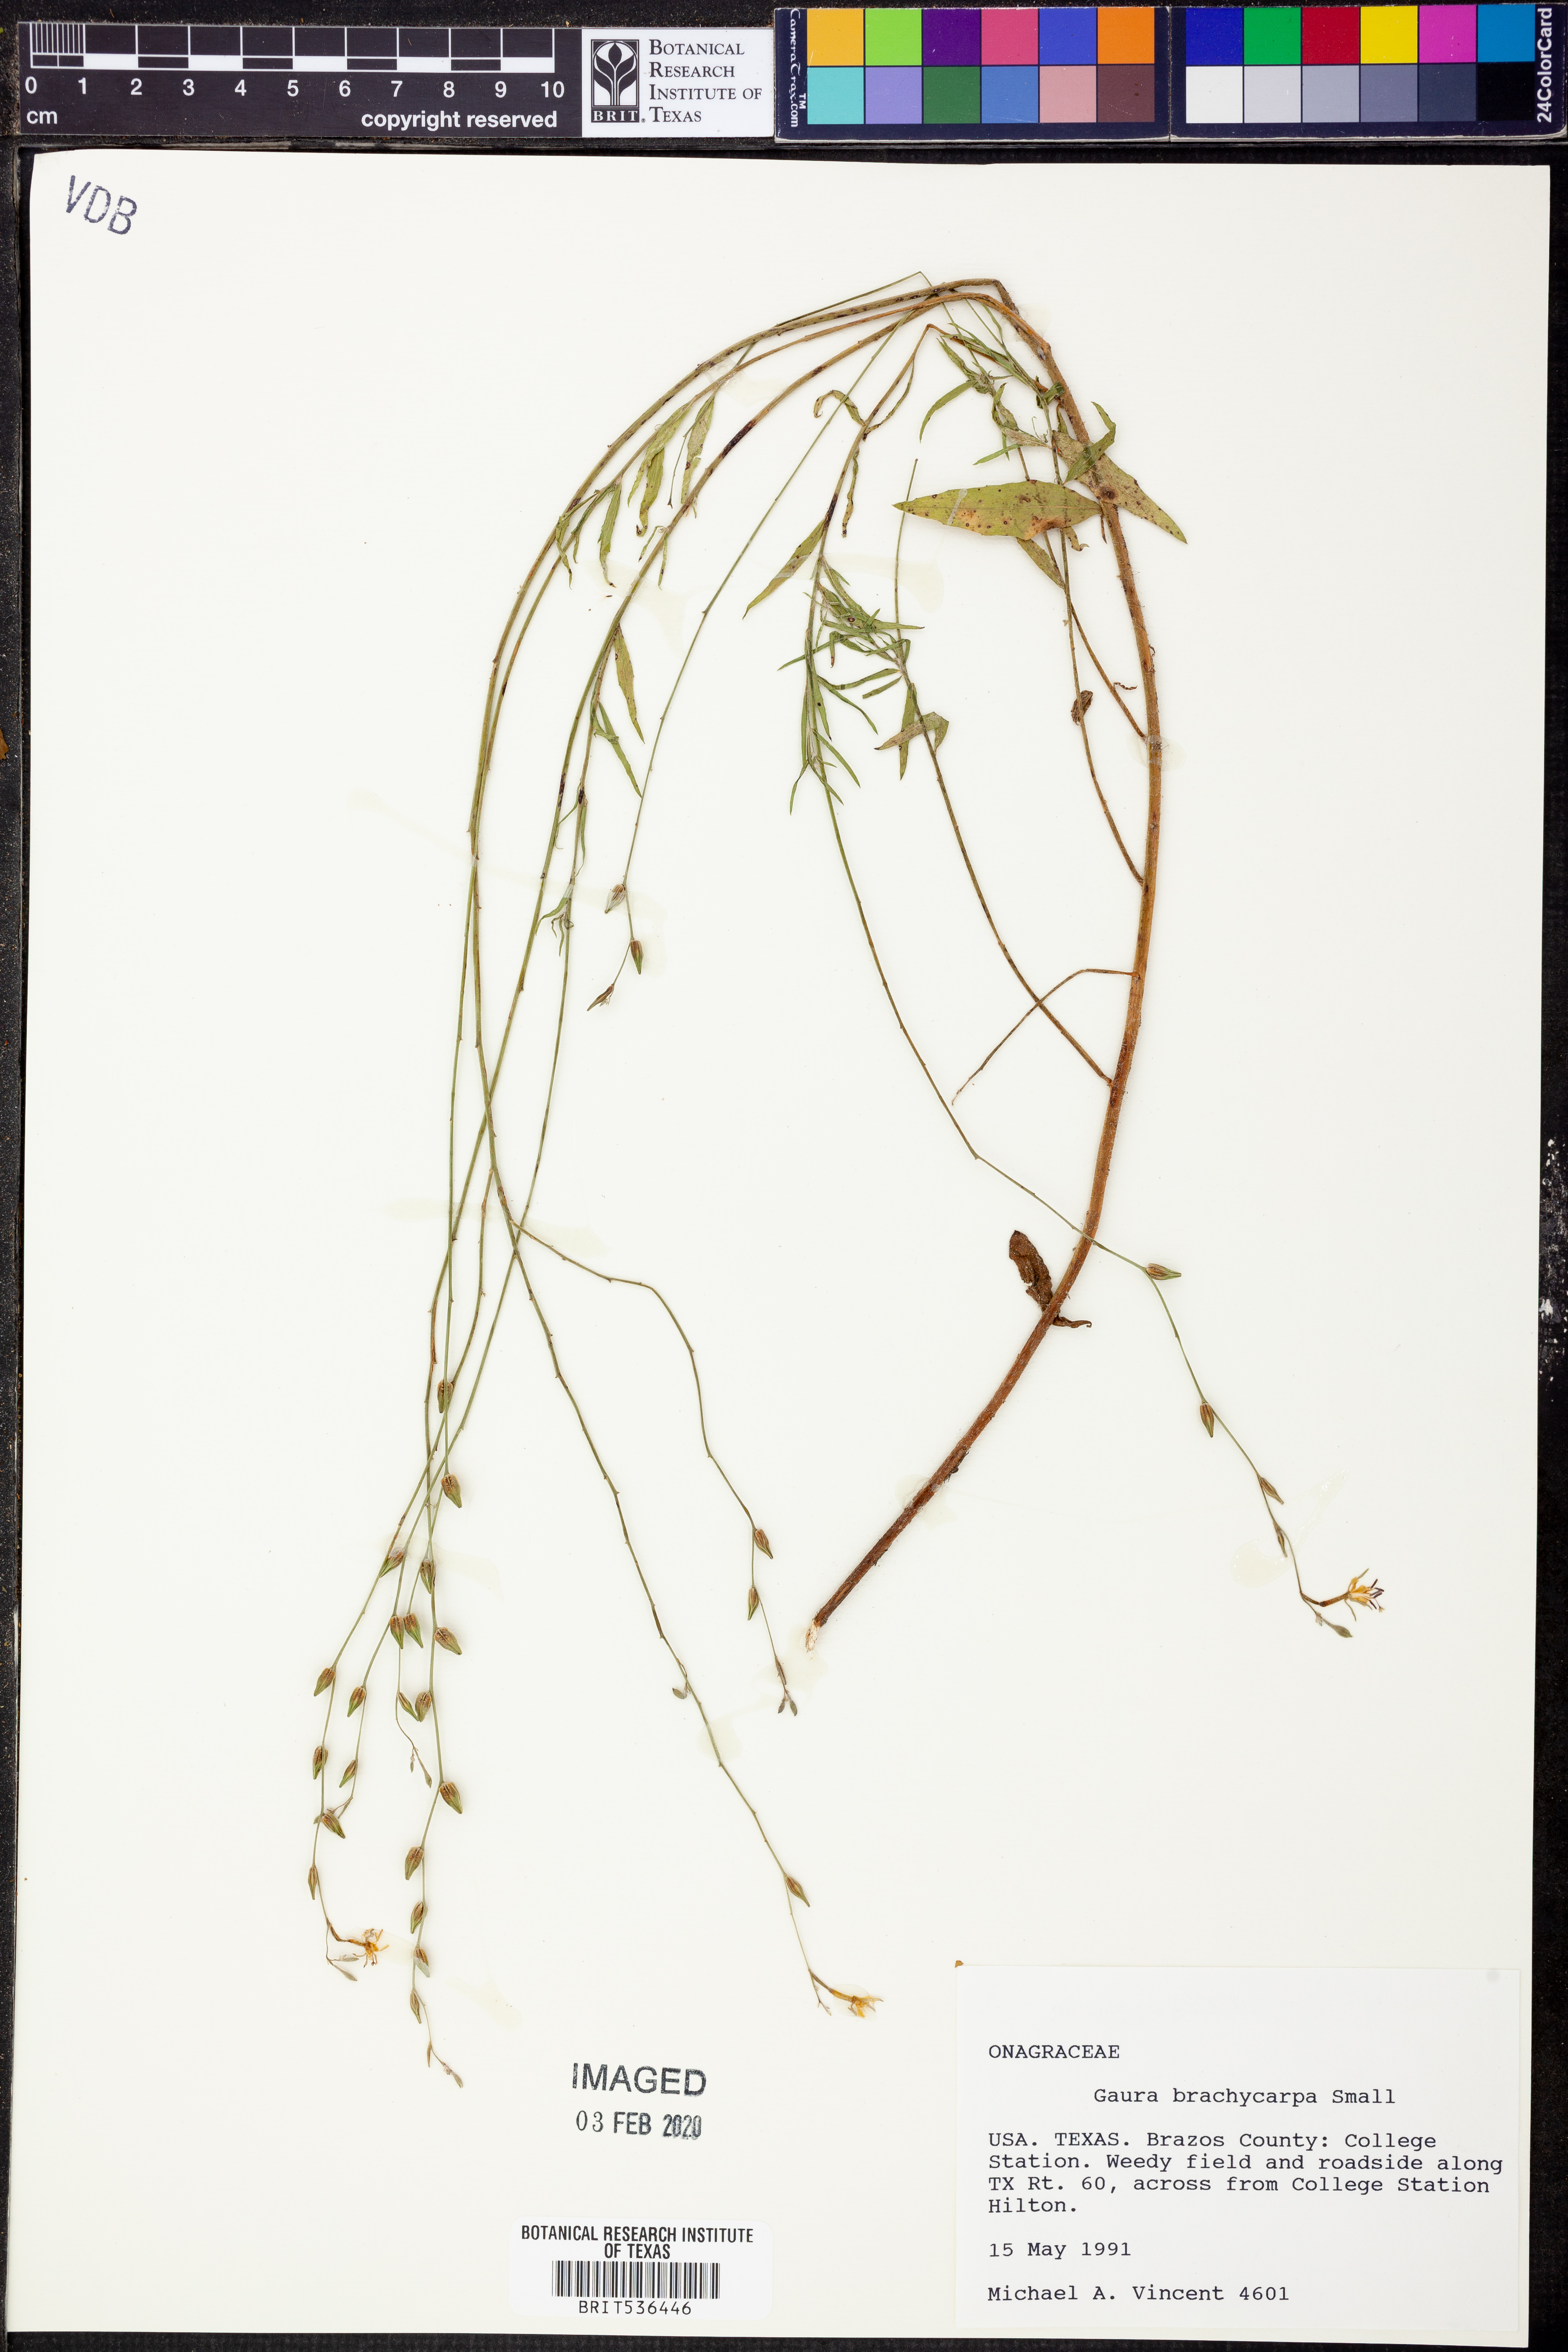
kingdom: Plantae
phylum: Tracheophyta
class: Magnoliopsida
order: Myrtales
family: Onagraceae
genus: Oenothera
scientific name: Oenothera patriciae
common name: Plains beeblossom
